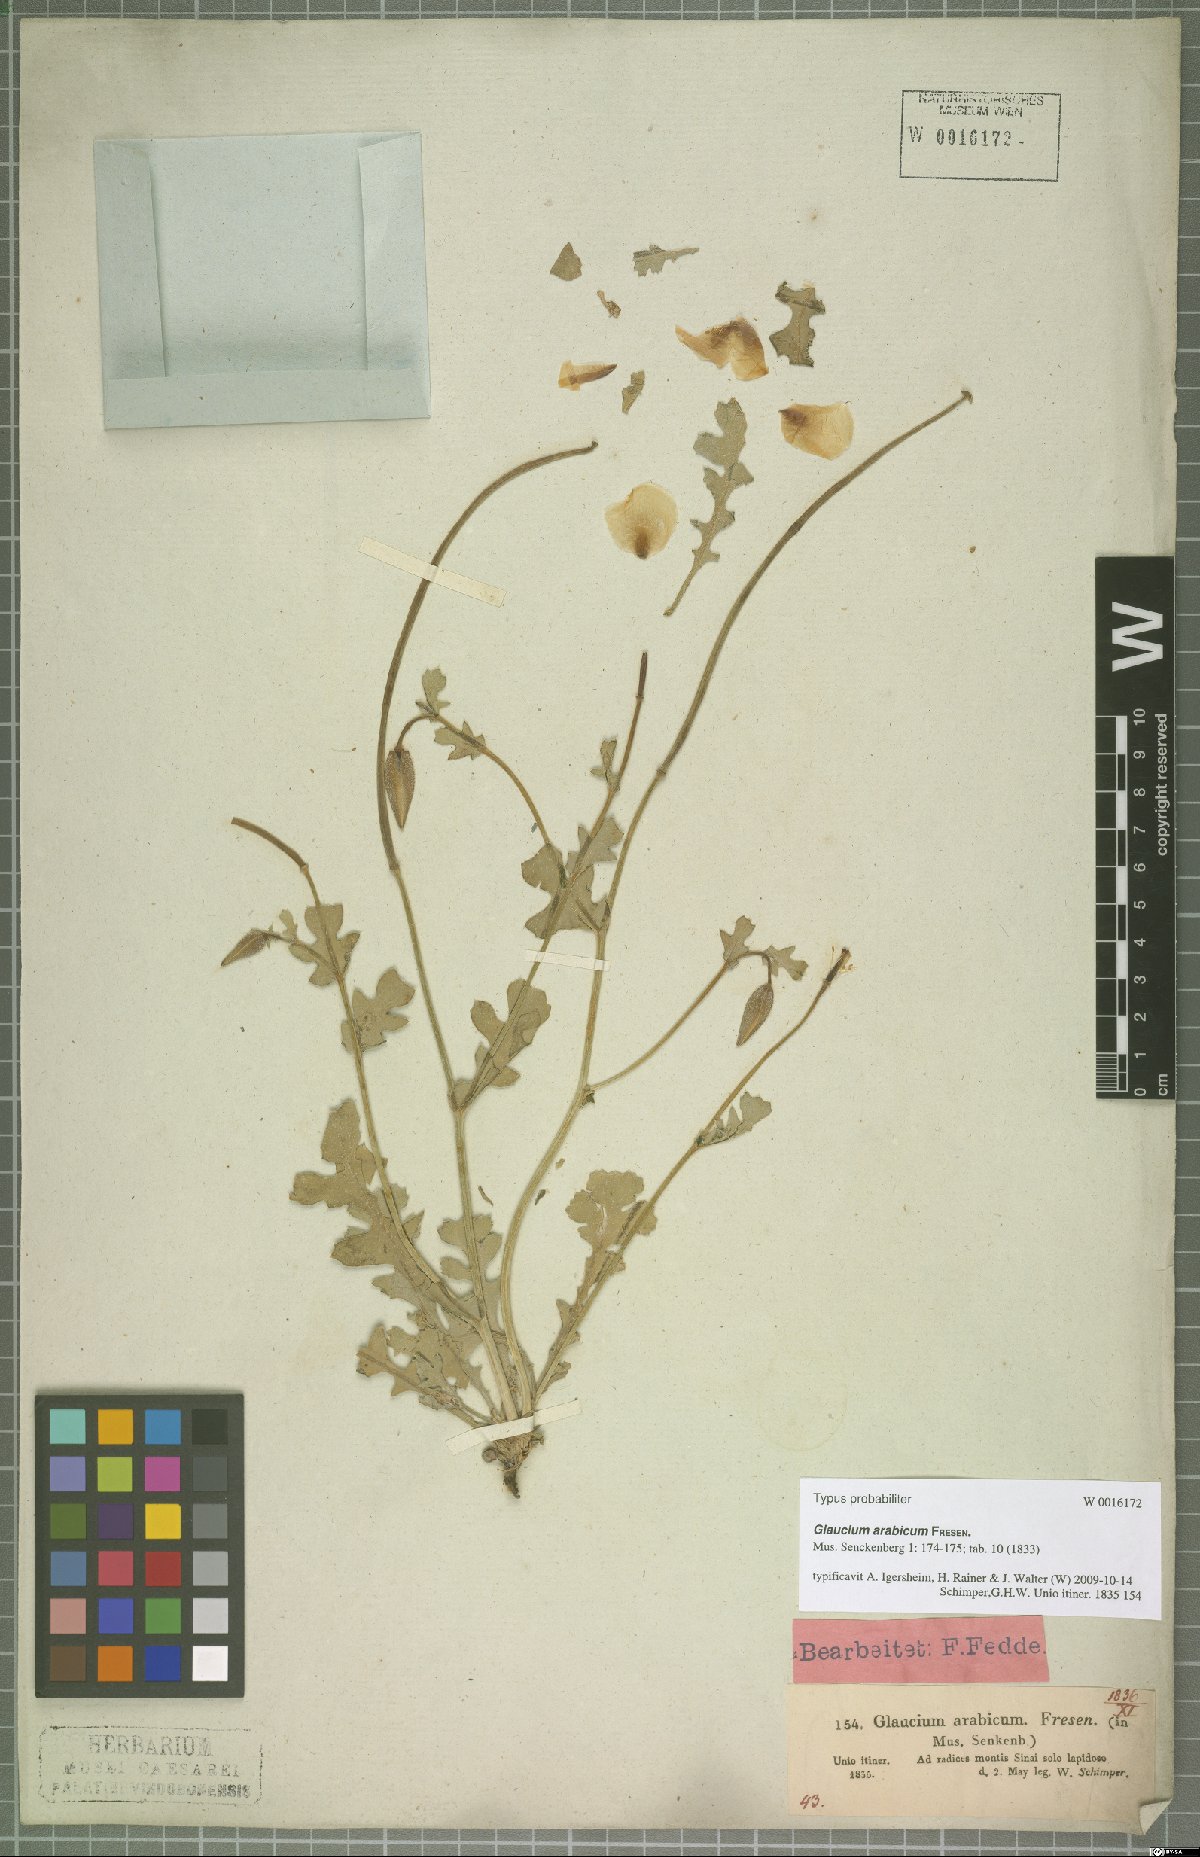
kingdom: Plantae
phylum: Tracheophyta
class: Magnoliopsida
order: Ranunculales
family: Papaveraceae
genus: Glaucium
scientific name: Glaucium arabicum
